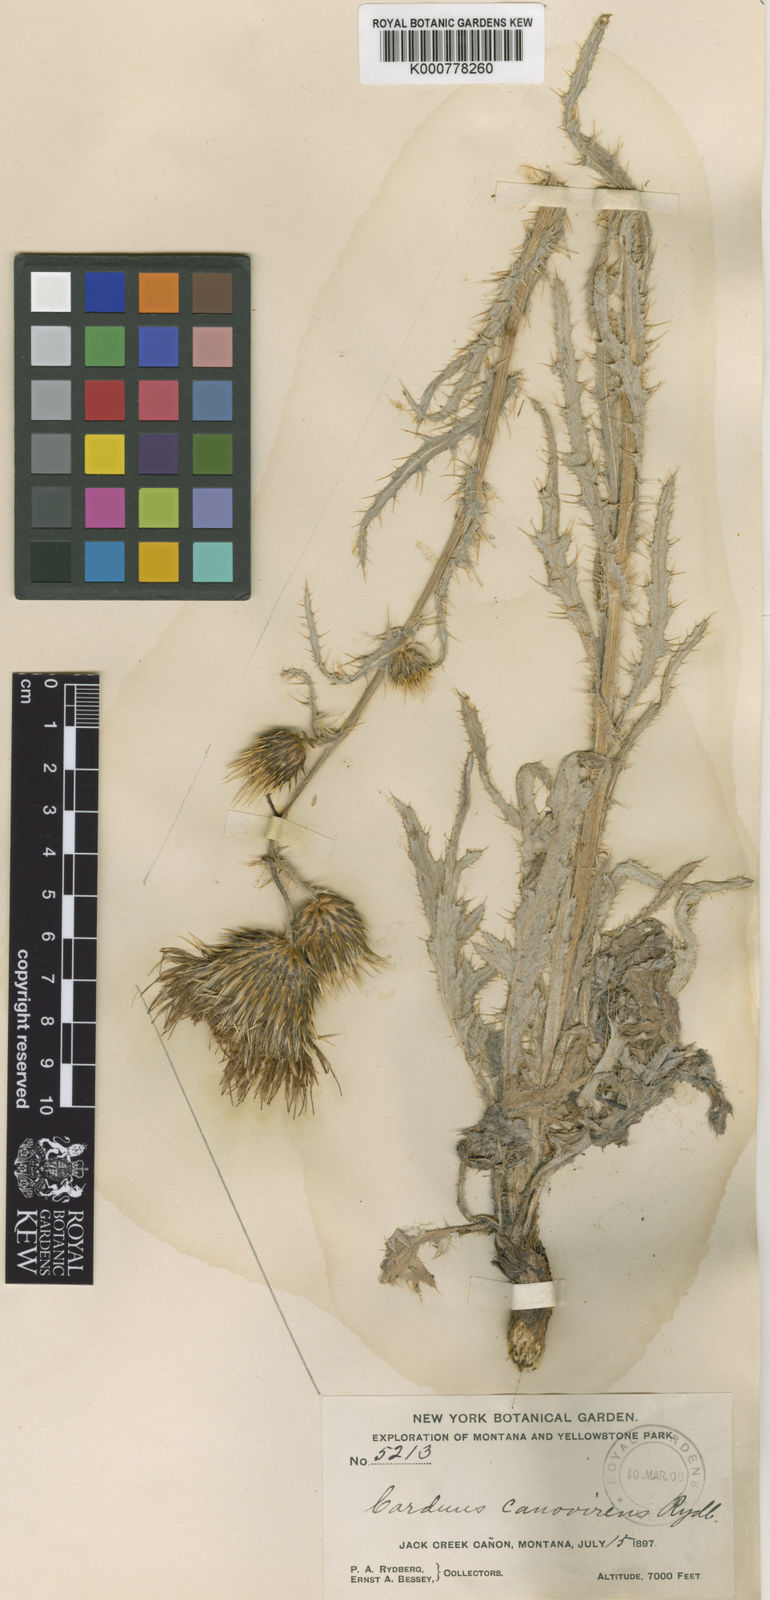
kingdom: Plantae
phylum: Tracheophyta
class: Magnoliopsida
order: Asterales
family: Asteraceae
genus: Cirsium
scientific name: Cirsium cymosum
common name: Peregrine thistle
